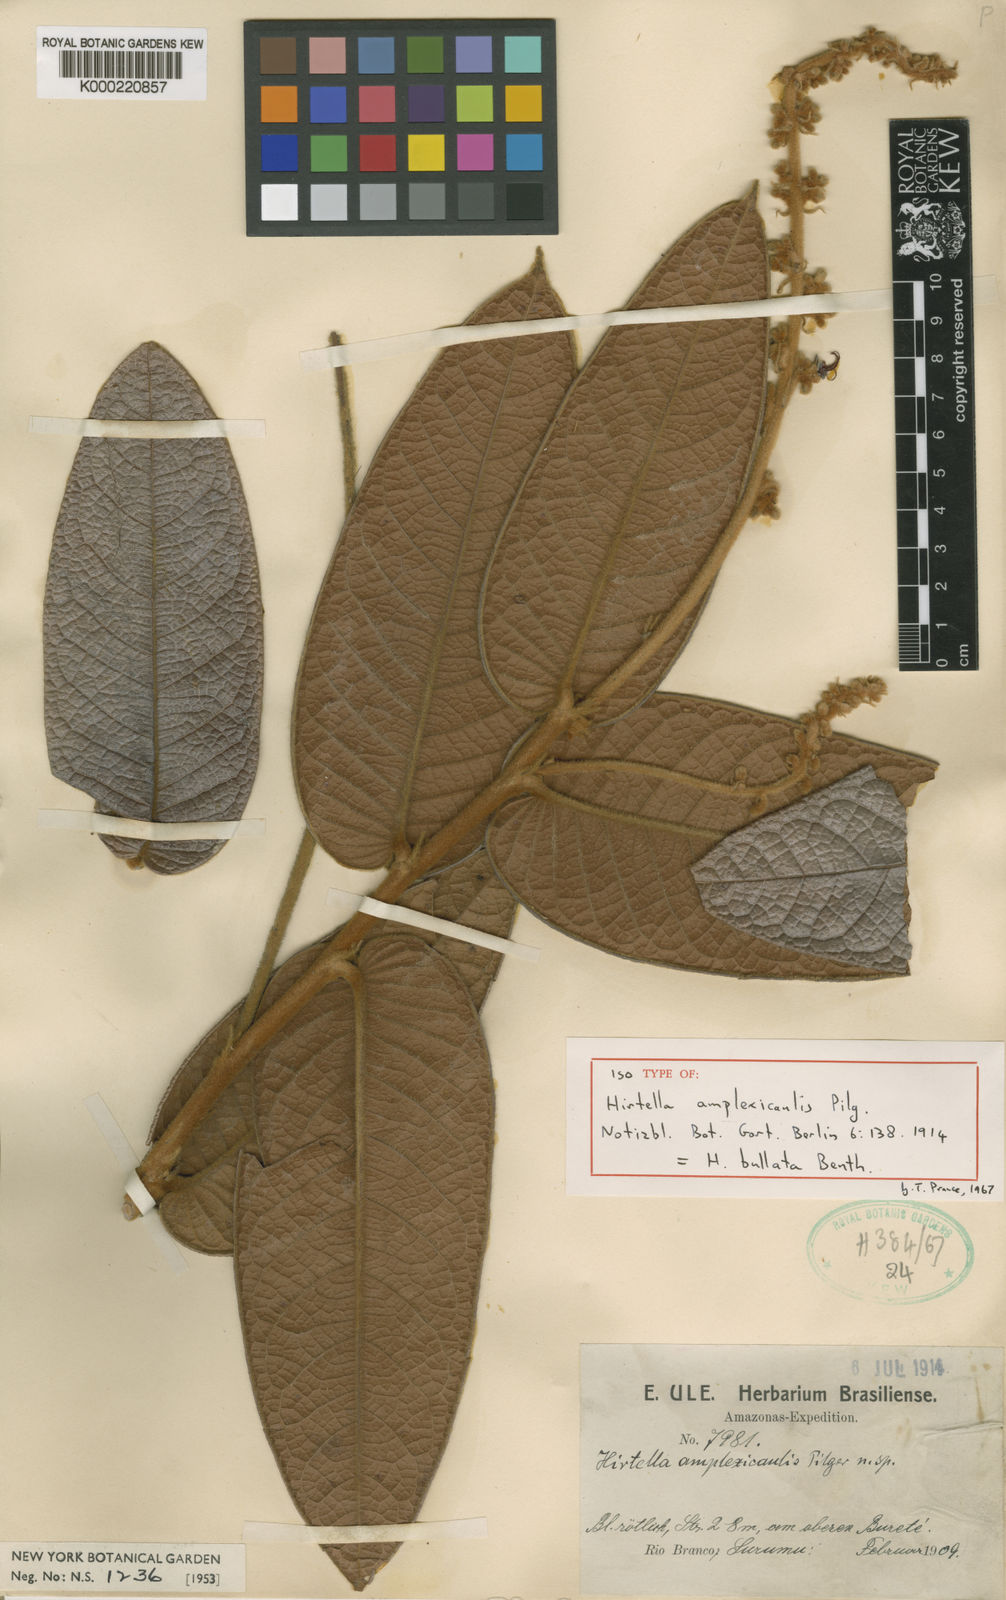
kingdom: Plantae
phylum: Tracheophyta
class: Magnoliopsida
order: Malpighiales
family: Chrysobalanaceae
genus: Hirtella
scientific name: Hirtella bullata
